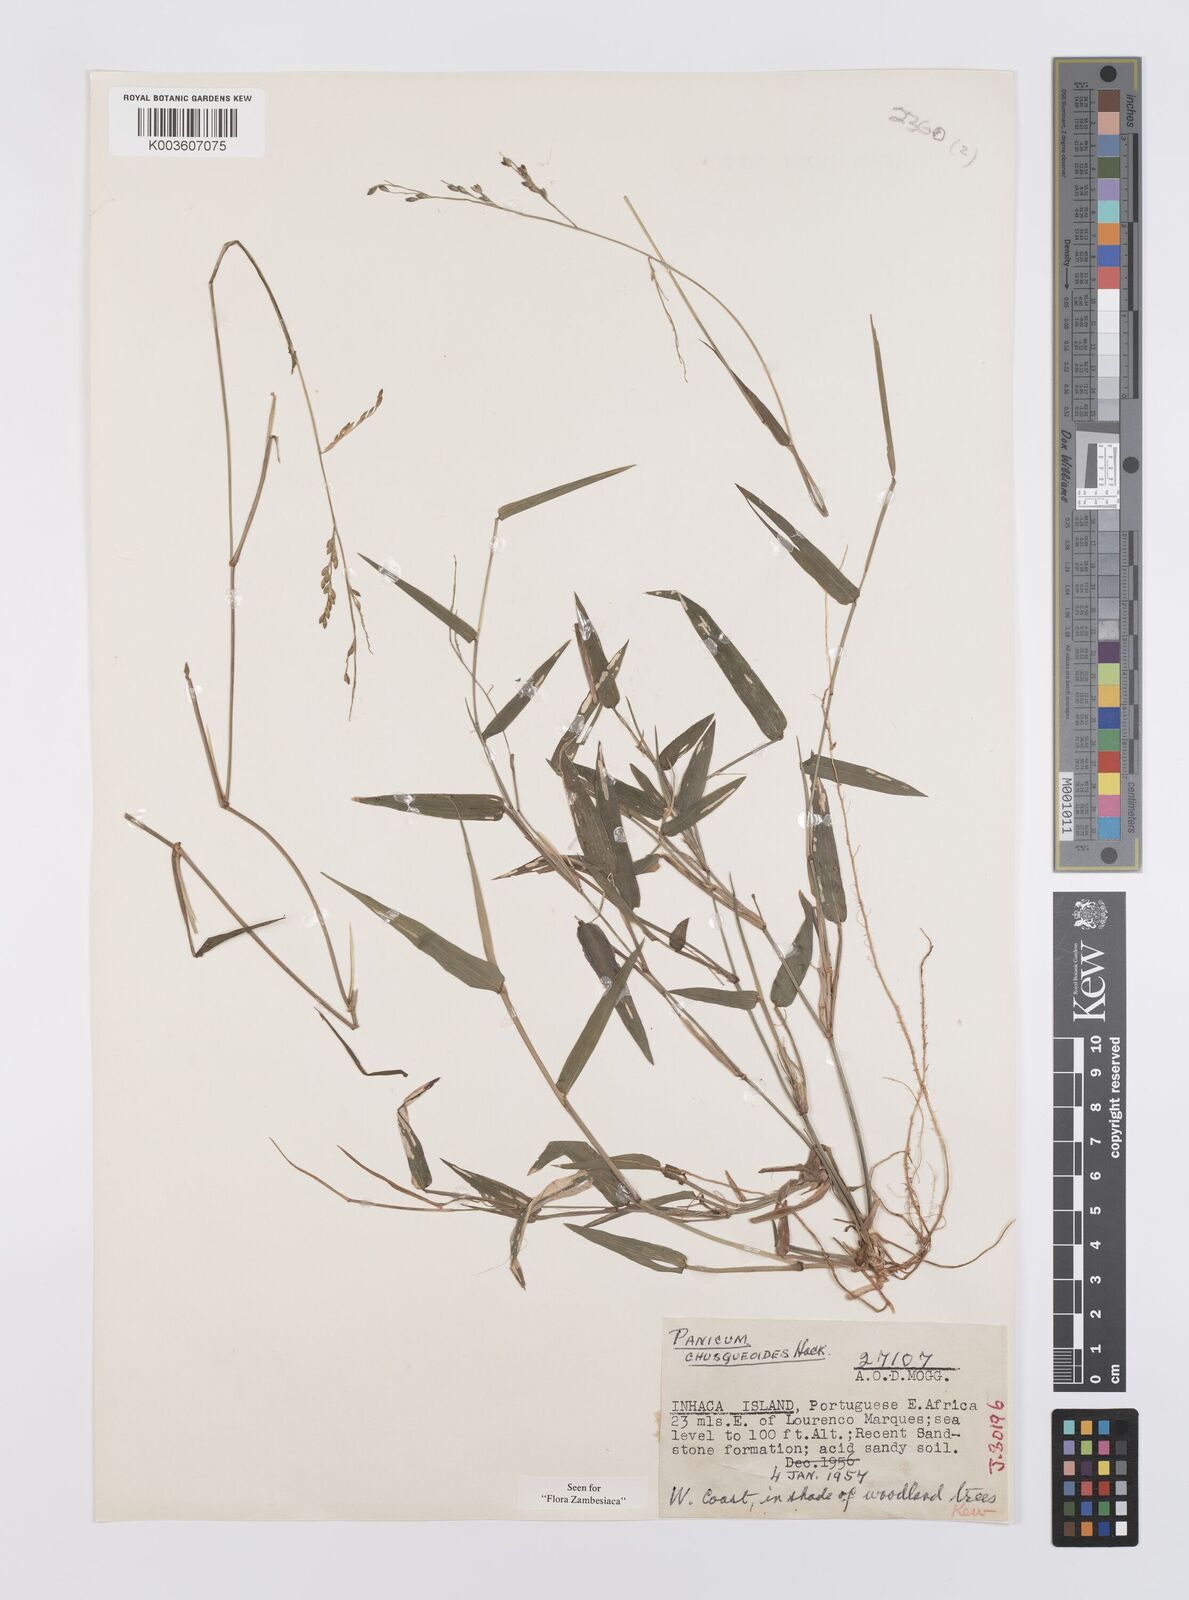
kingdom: Plantae
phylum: Tracheophyta
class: Liliopsida
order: Poales
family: Poaceae
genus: Urochloa
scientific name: Urochloa chusqueoides
